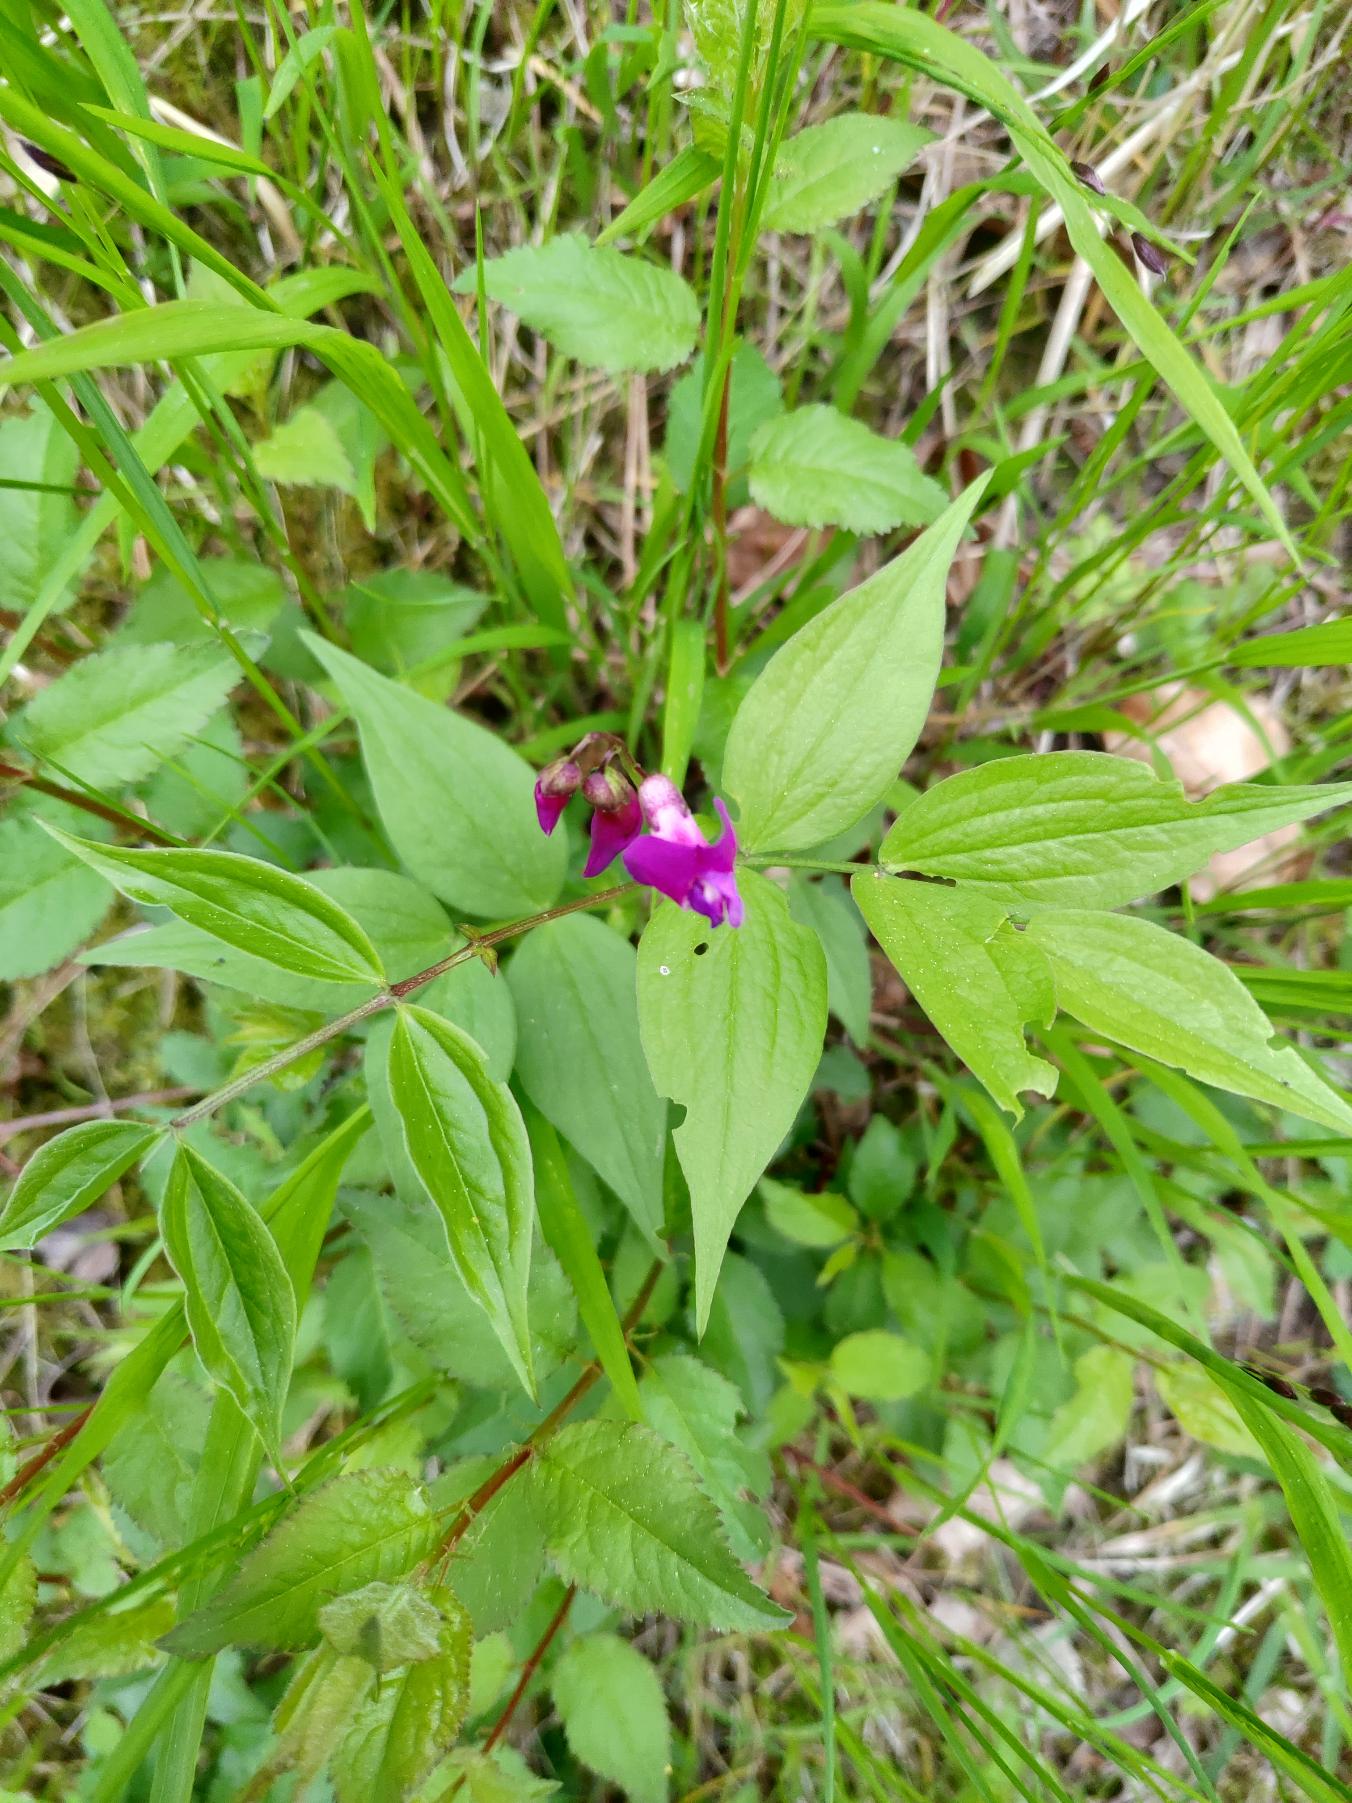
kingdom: Plantae
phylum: Tracheophyta
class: Magnoliopsida
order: Fabales
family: Fabaceae
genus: Lathyrus
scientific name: Lathyrus vernus
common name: Vår-fladbælg
